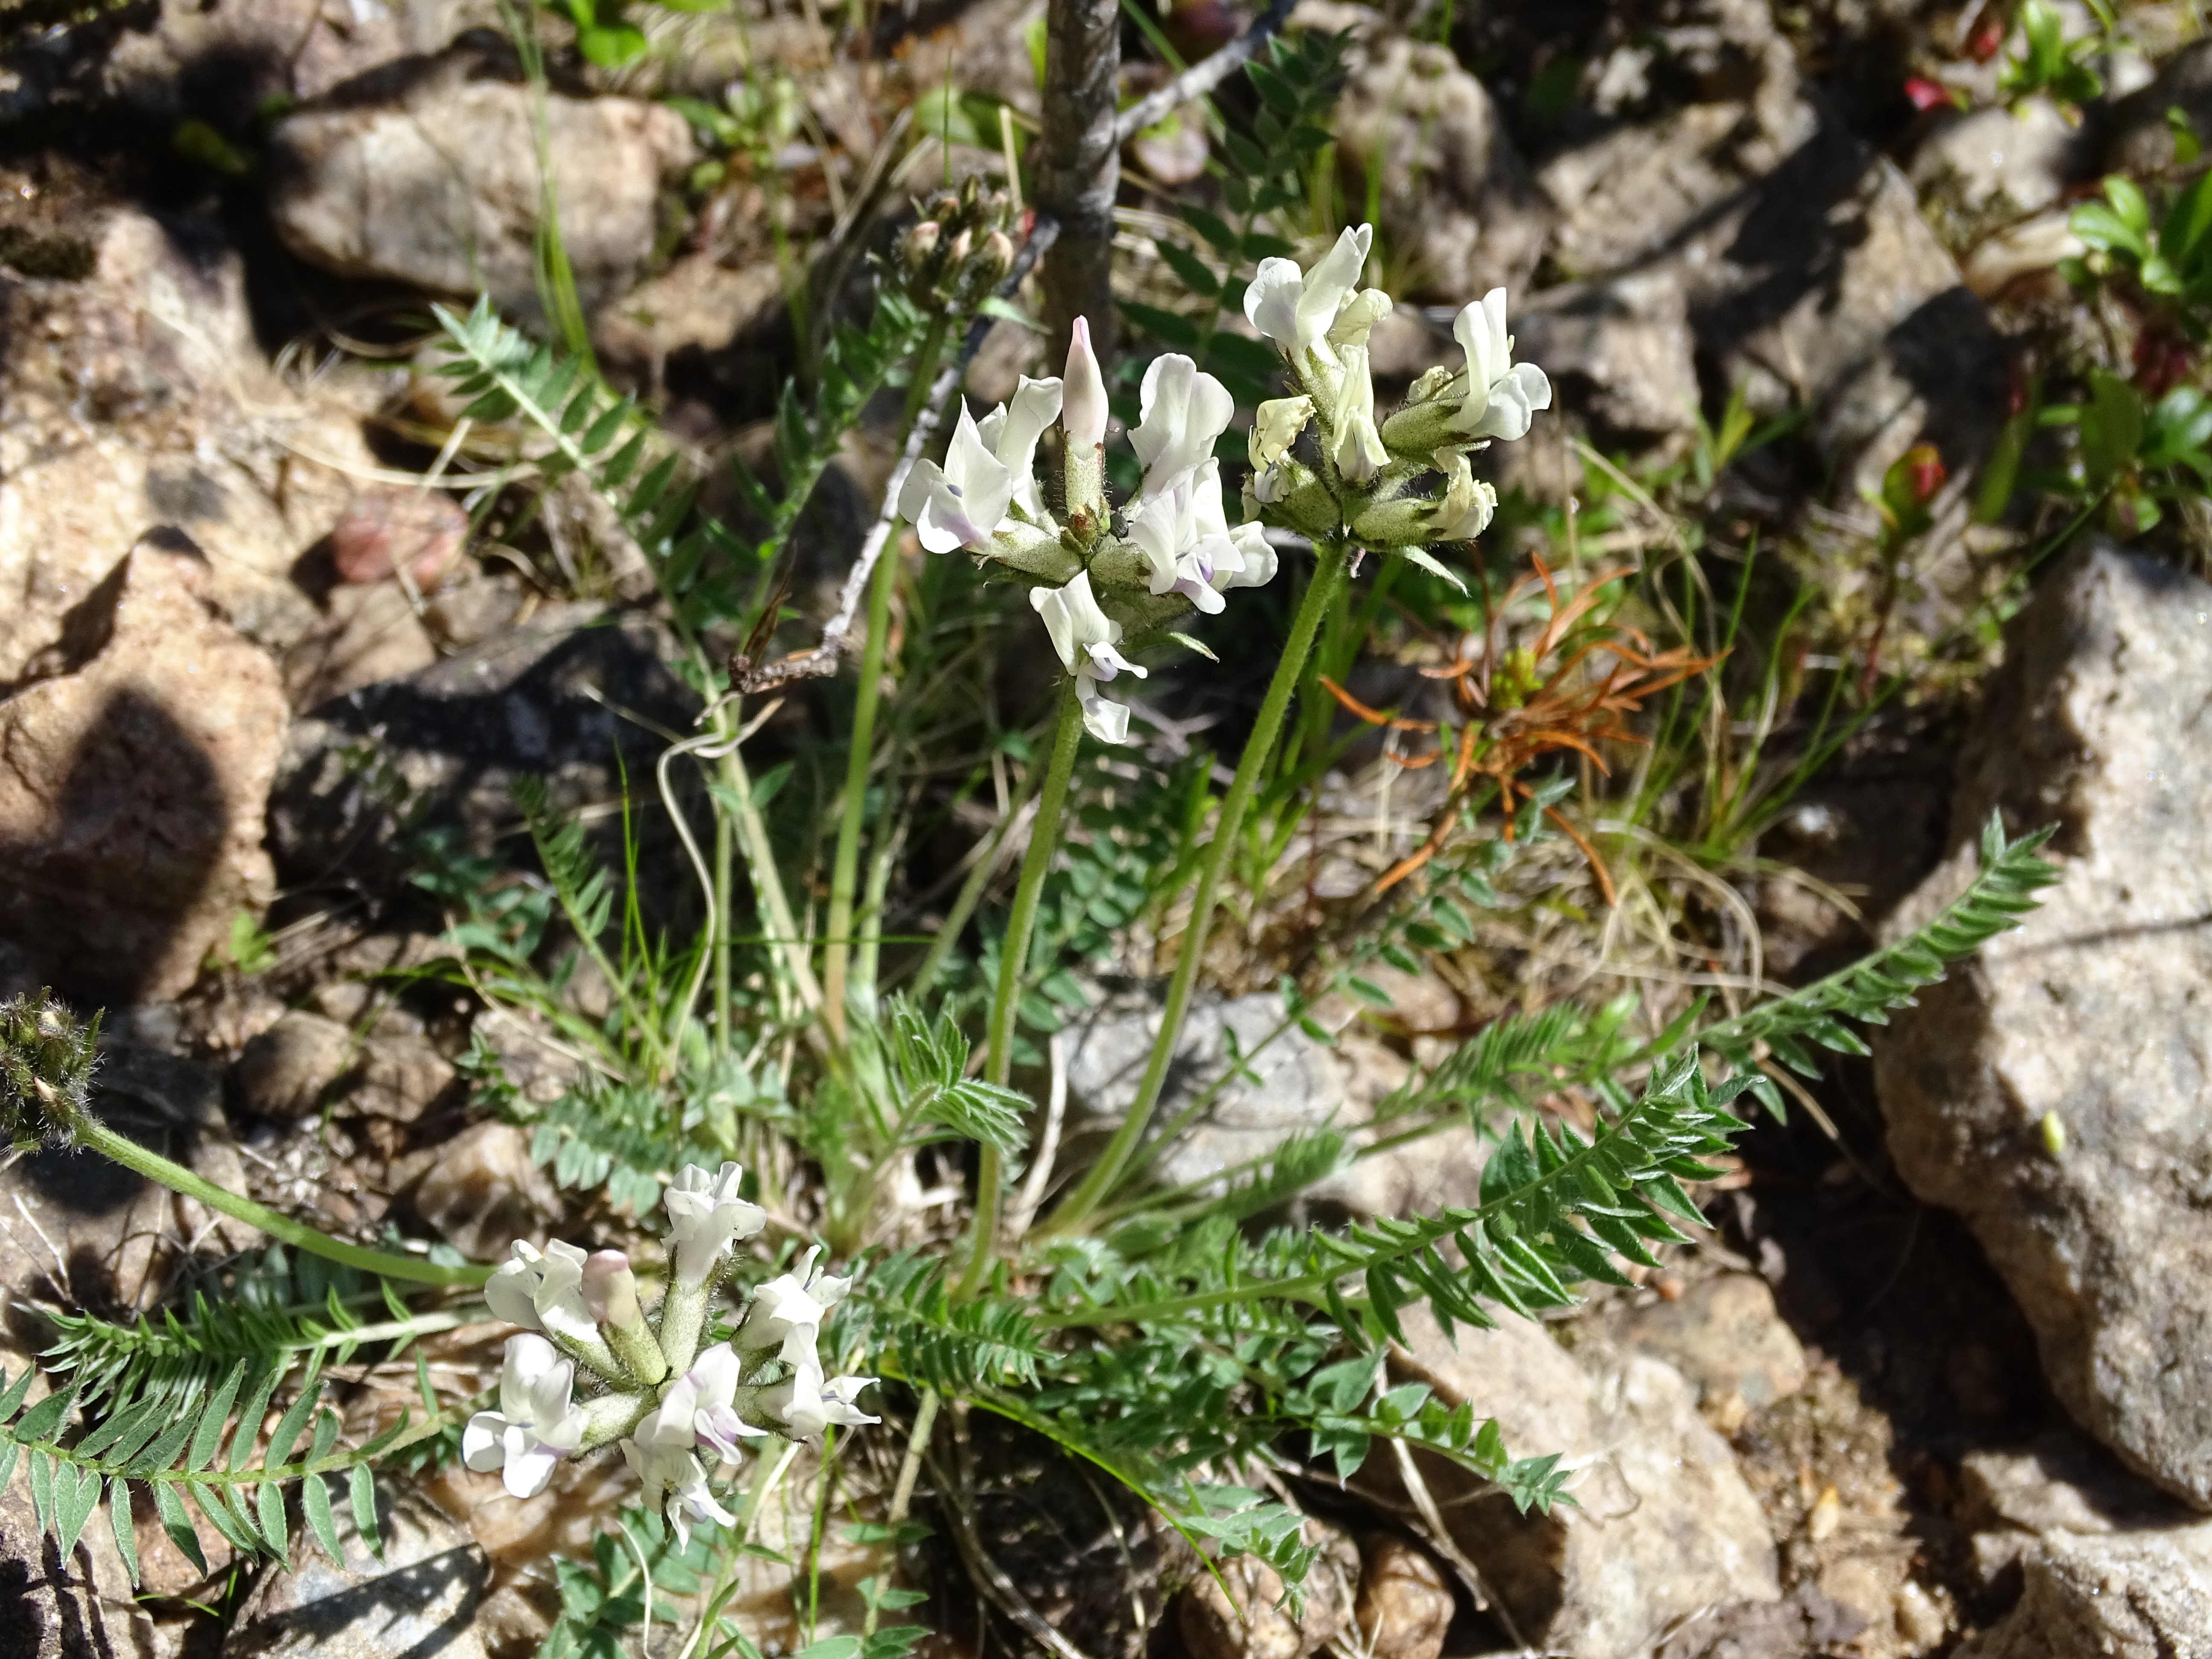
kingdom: Plantae
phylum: Tracheophyta
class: Magnoliopsida
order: Fabales
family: Fabaceae
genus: Oxytropis
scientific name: Oxytropis sordida
